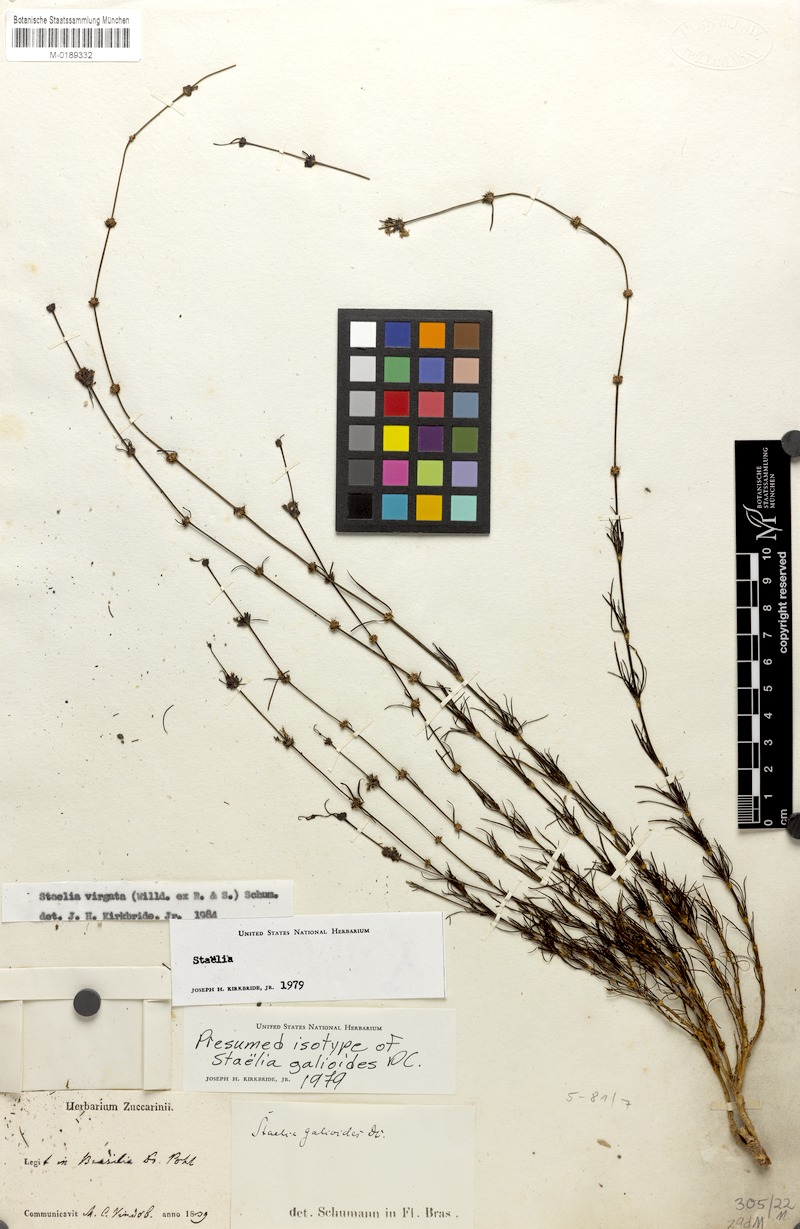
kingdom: Plantae
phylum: Tracheophyta
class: Magnoliopsida
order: Gentianales
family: Rubiaceae
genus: Staelia
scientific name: Staelia virgata
